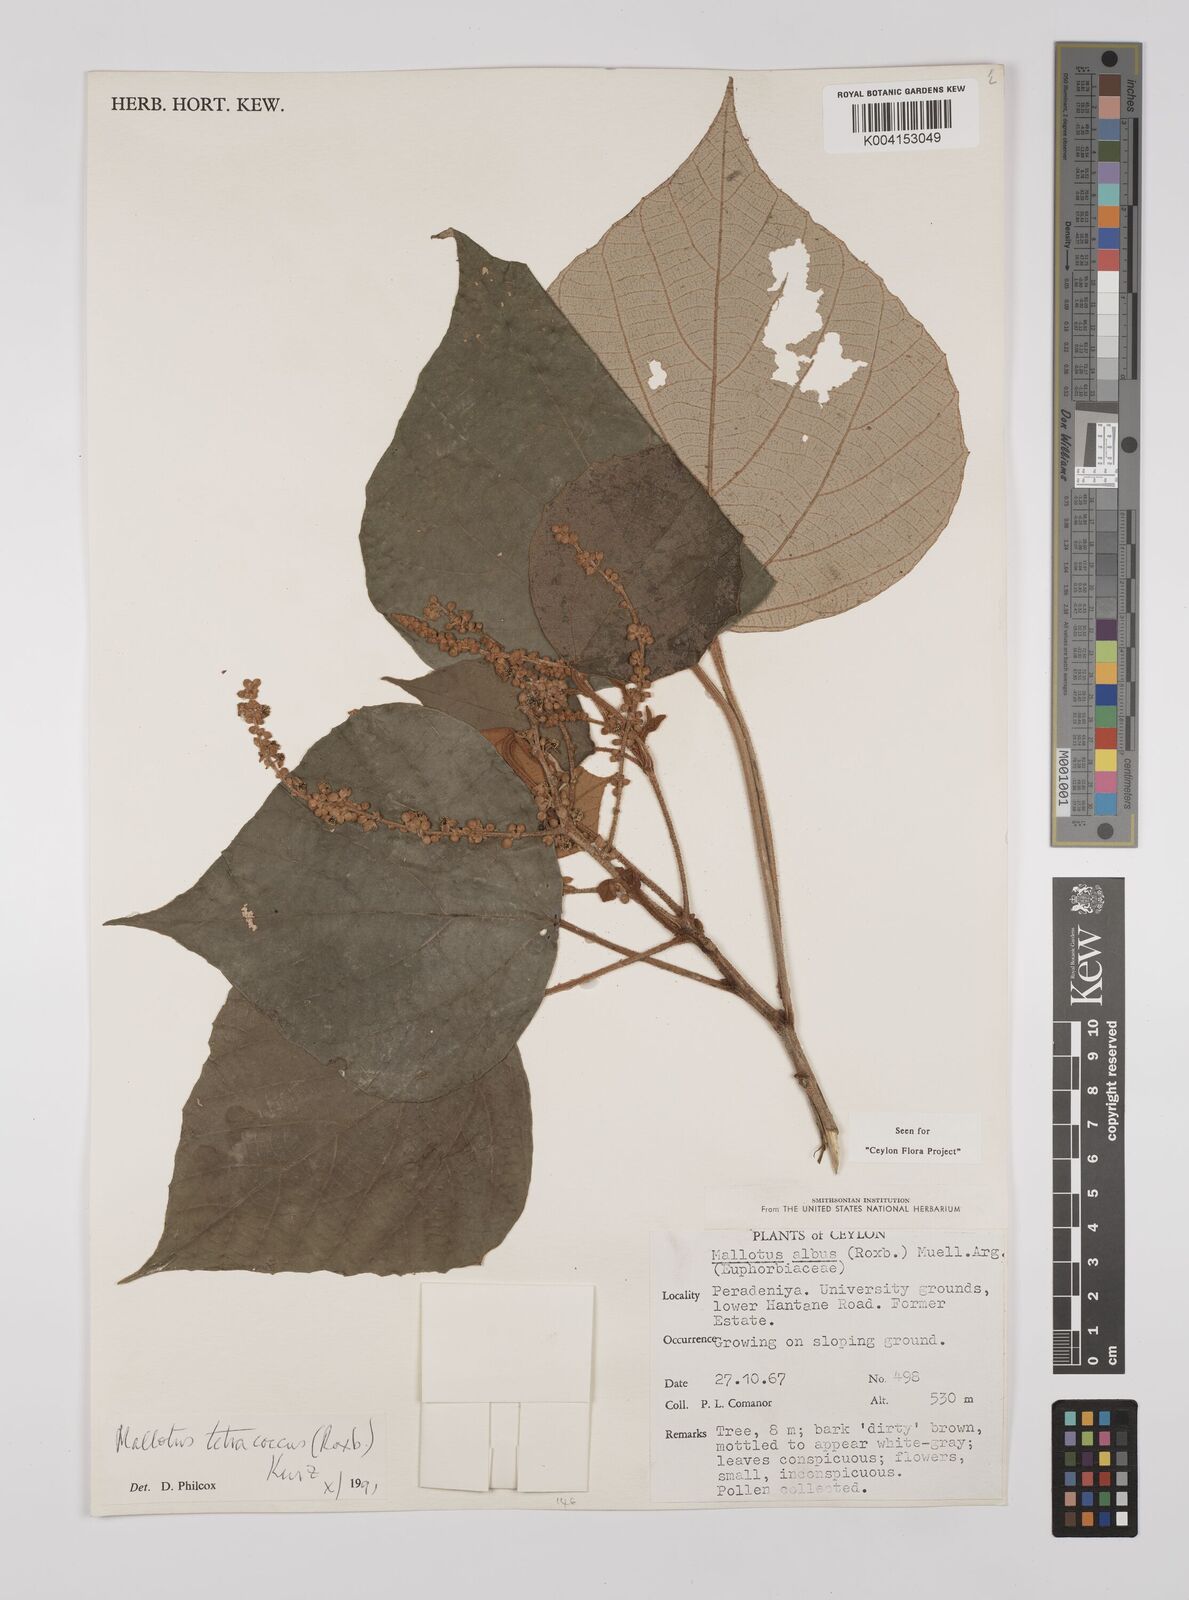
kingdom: Plantae
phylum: Tracheophyta
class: Magnoliopsida
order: Malpighiales
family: Euphorbiaceae
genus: Mallotus
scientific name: Mallotus tetracoccus
